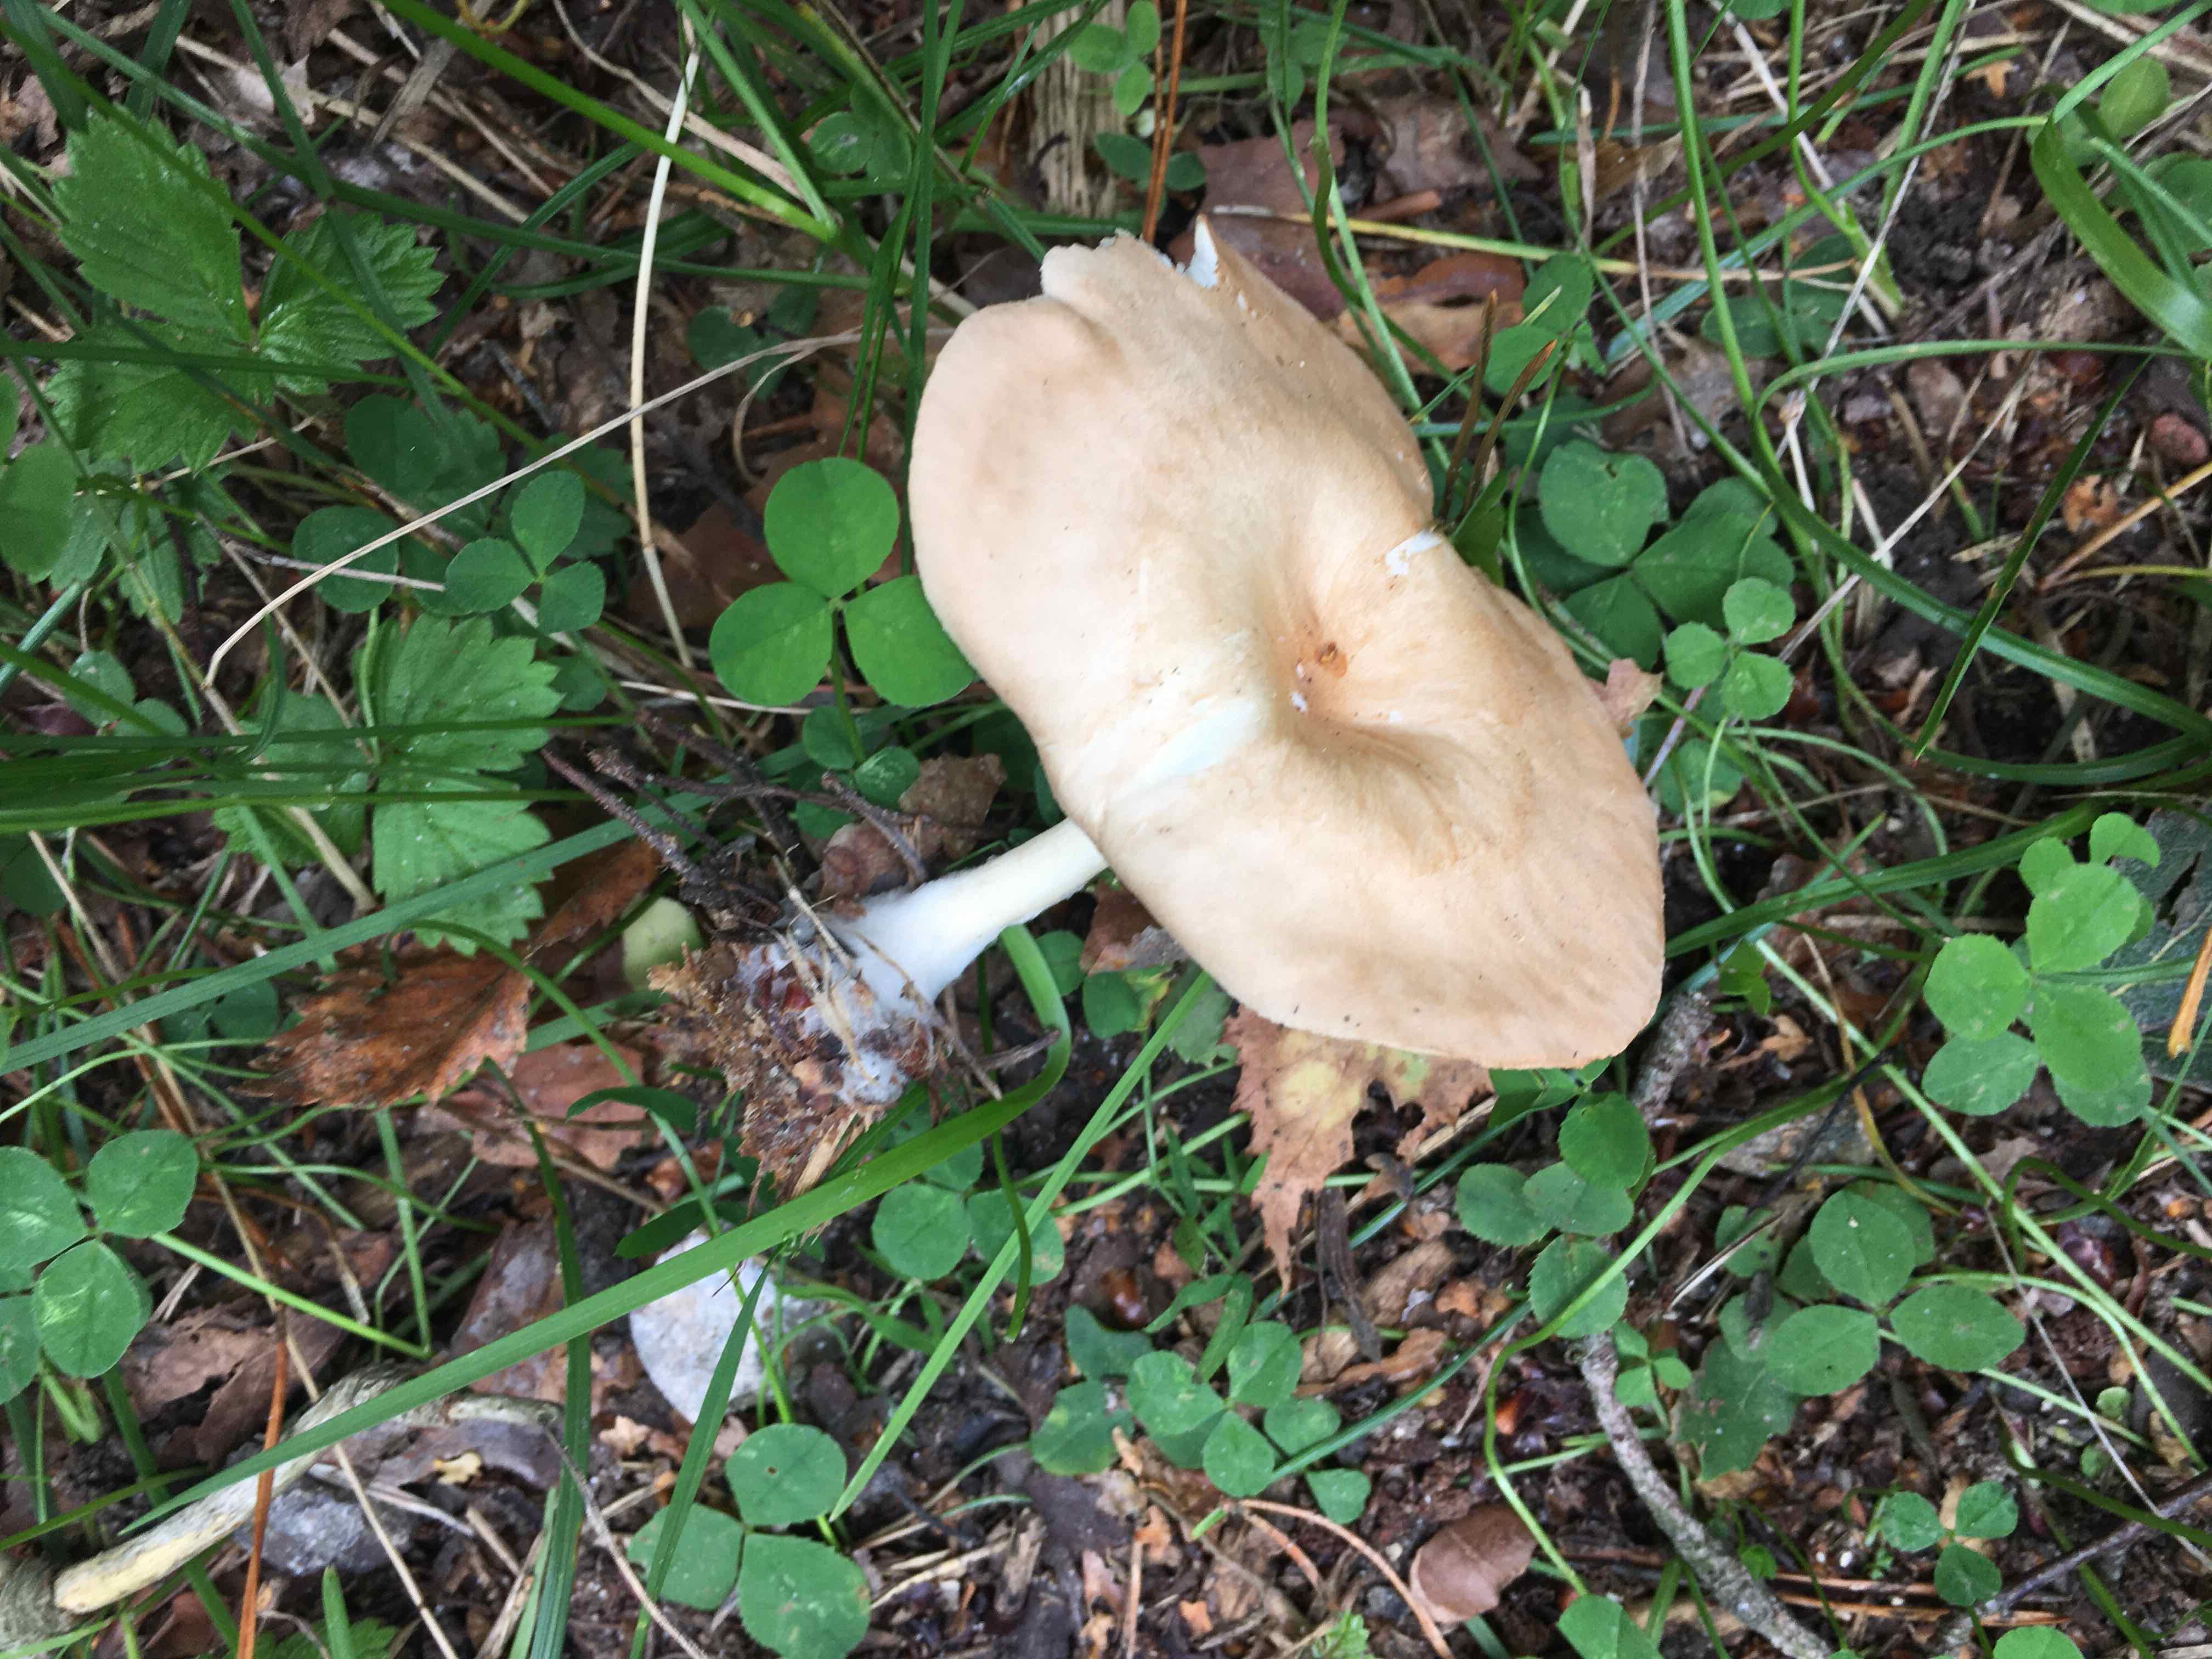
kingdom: Fungi
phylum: Basidiomycota
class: Agaricomycetes
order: Agaricales
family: Tricholomataceae
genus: Infundibulicybe
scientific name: Infundibulicybe gibba
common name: almindelig tragthat
